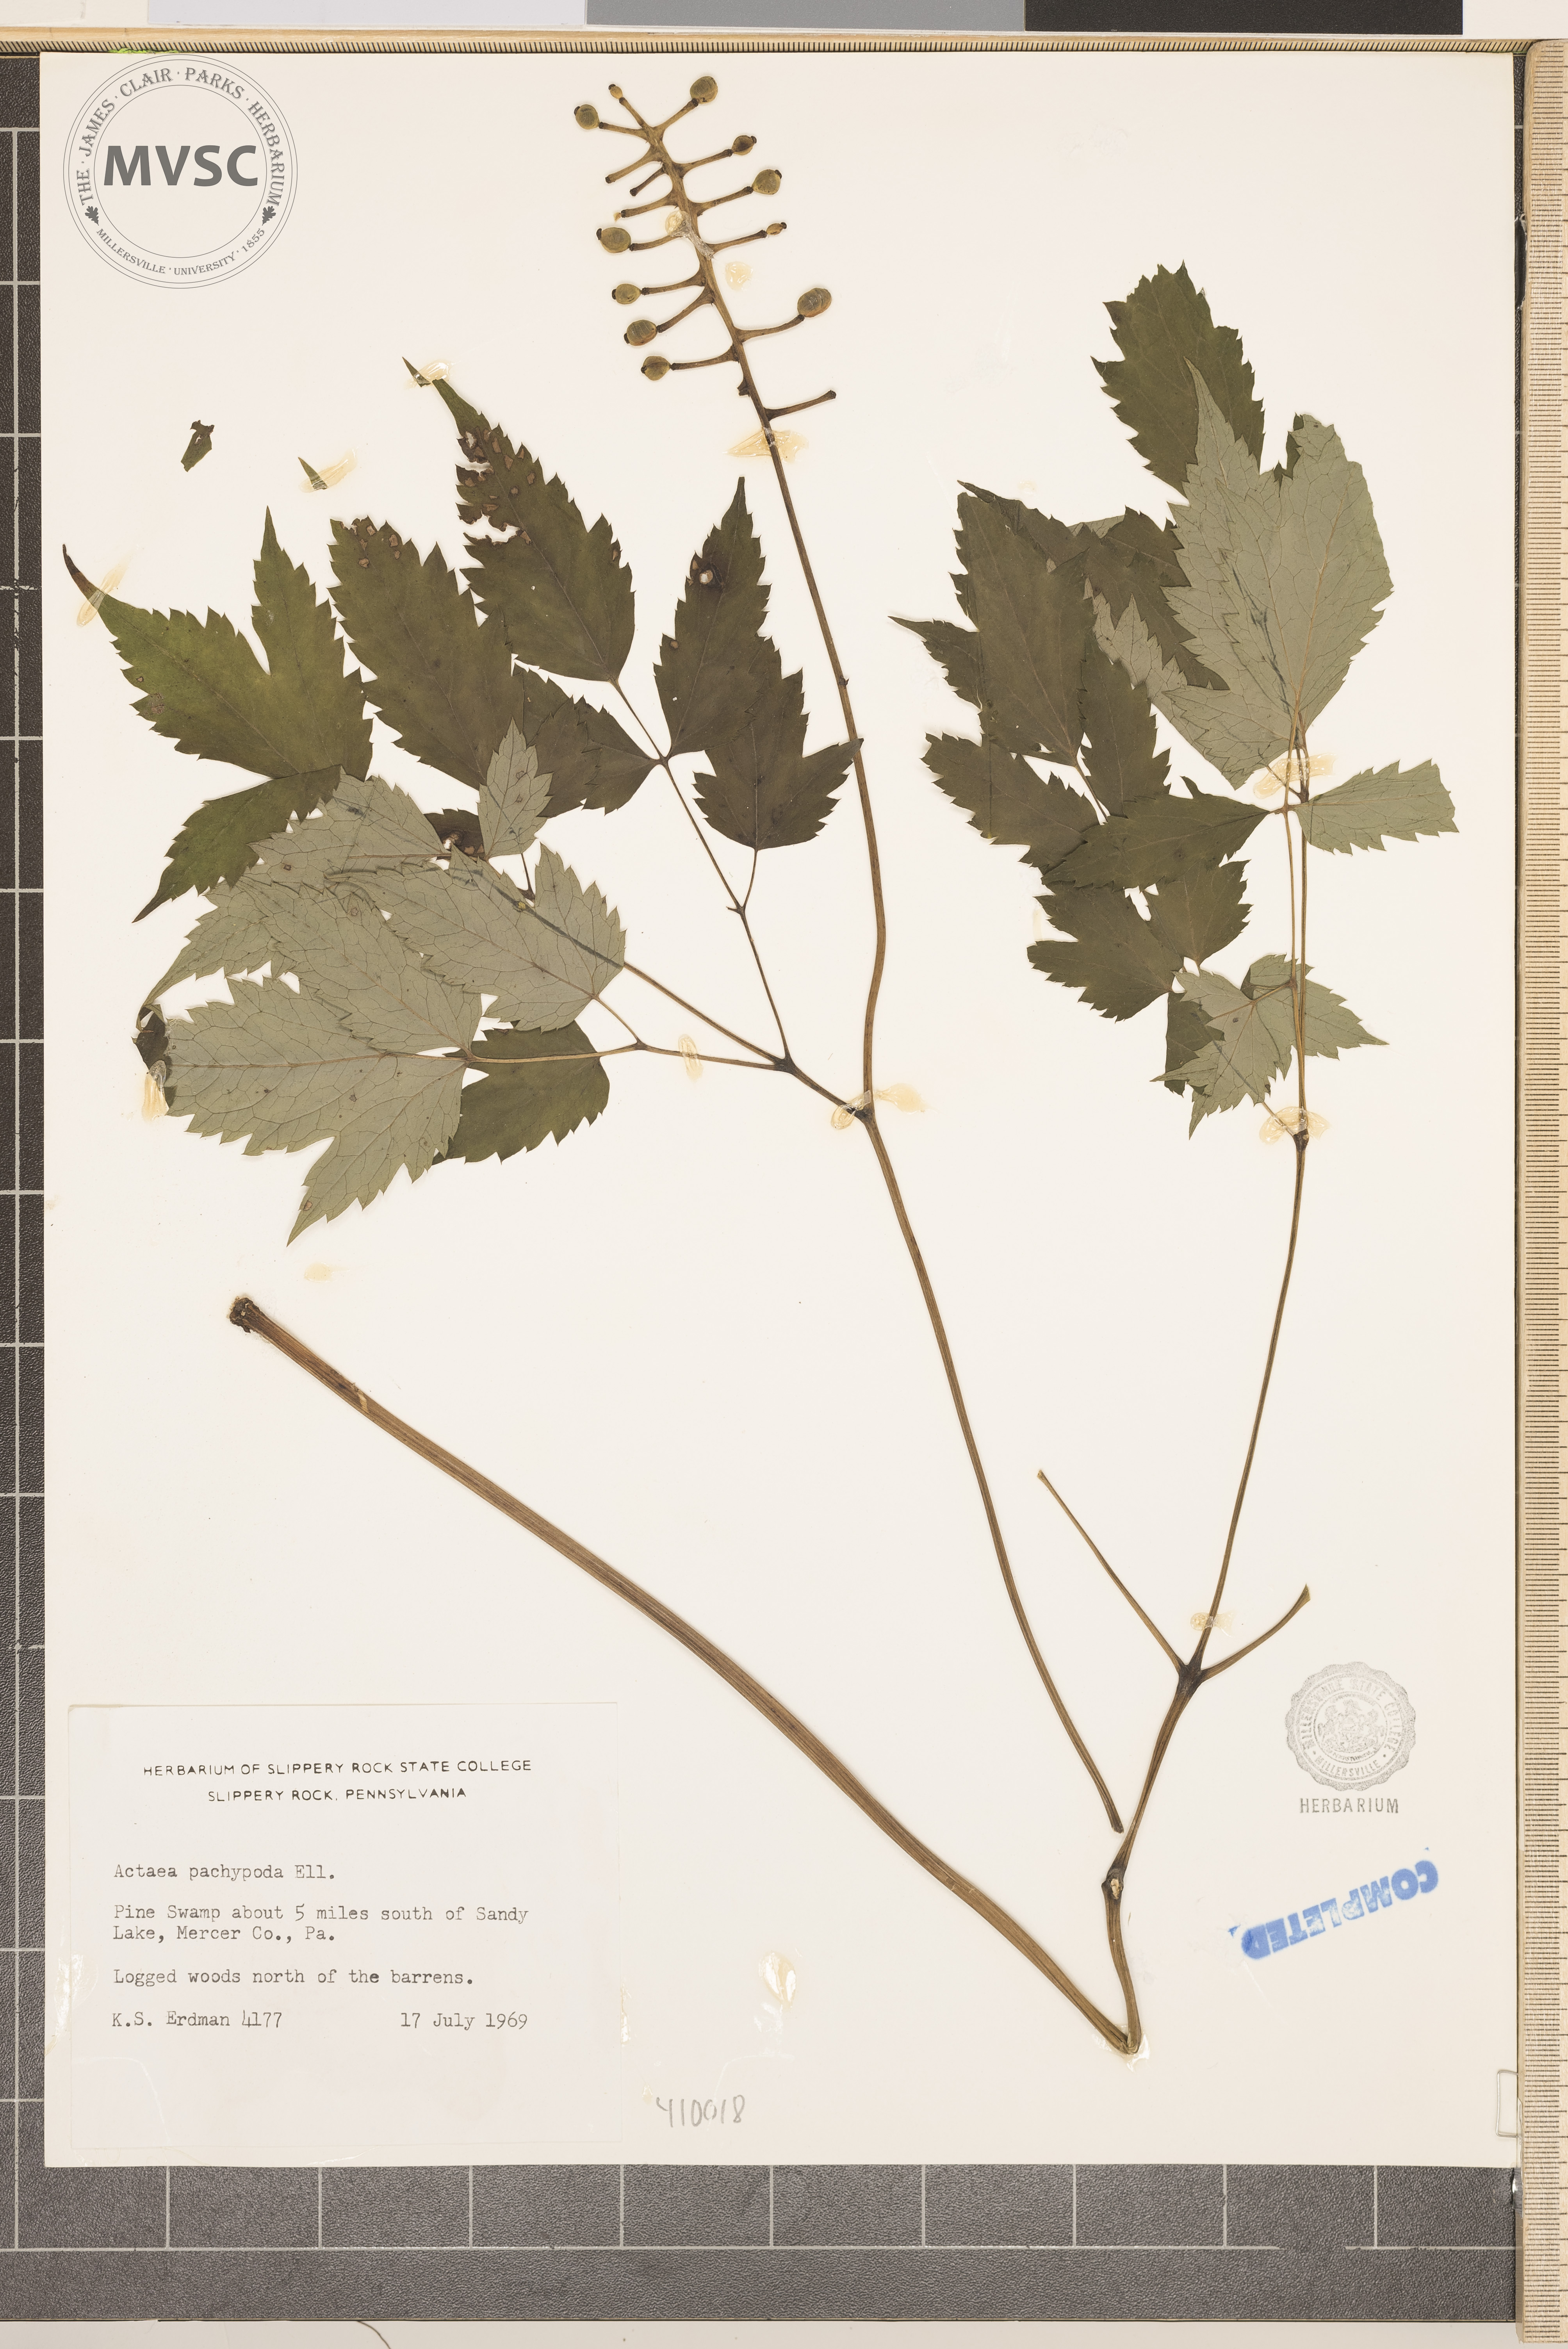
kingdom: Plantae
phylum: Tracheophyta
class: Magnoliopsida
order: Ranunculales
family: Ranunculaceae
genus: Actaea
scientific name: Actaea pachypoda
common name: Doll's-eyes
